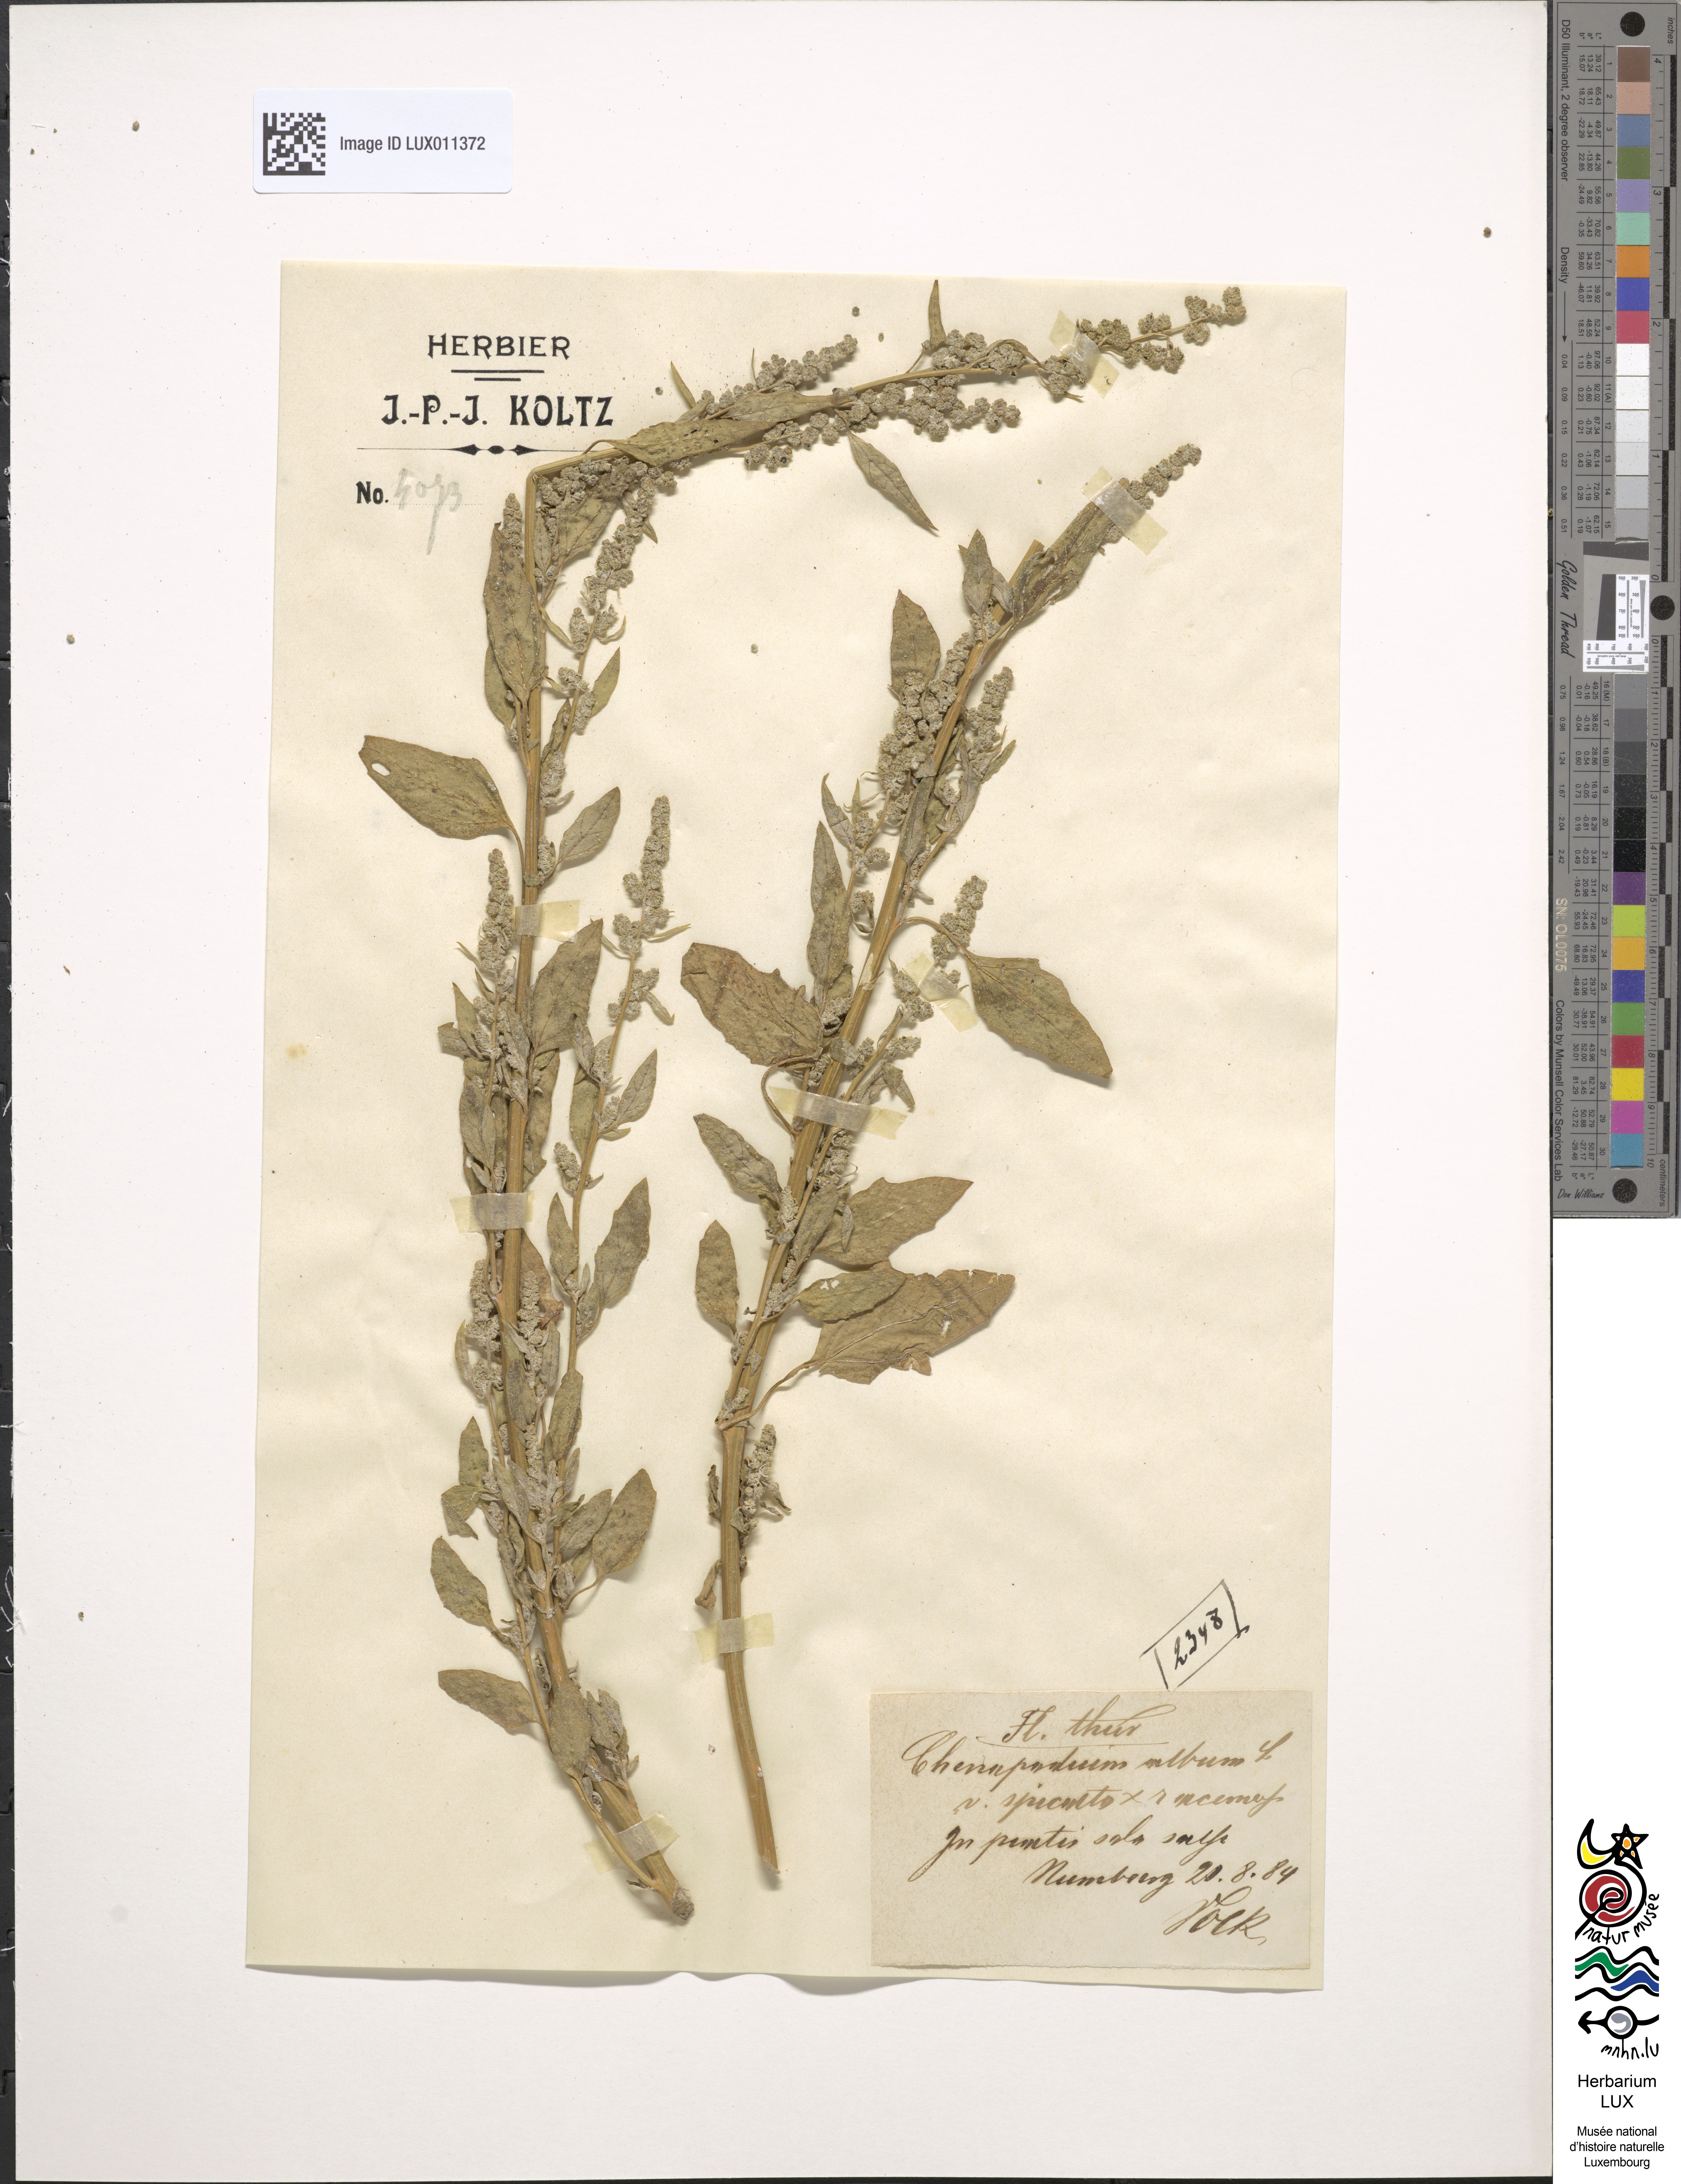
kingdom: Plantae
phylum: Tracheophyta
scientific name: Tracheophyta
